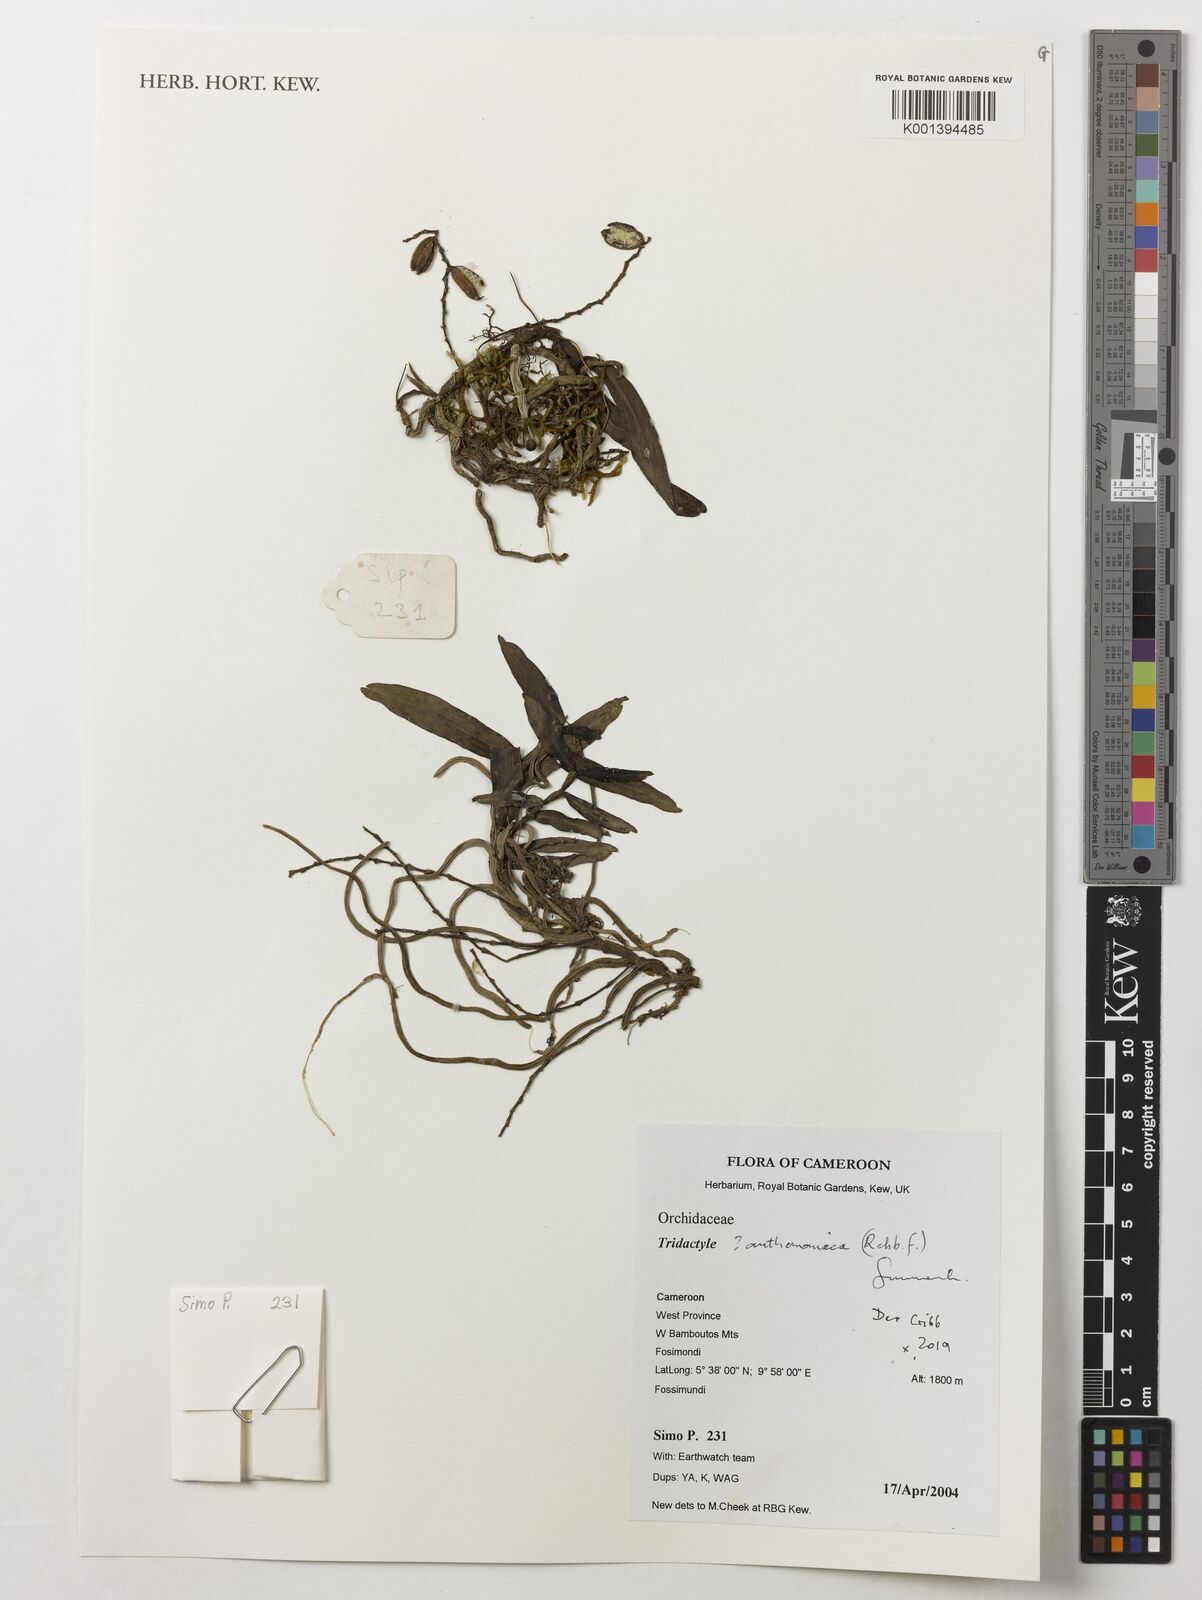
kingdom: Plantae
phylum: Tracheophyta
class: Liliopsida
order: Asparagales
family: Orchidaceae
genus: Tridactyle
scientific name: Tridactyle anthomaniaca
